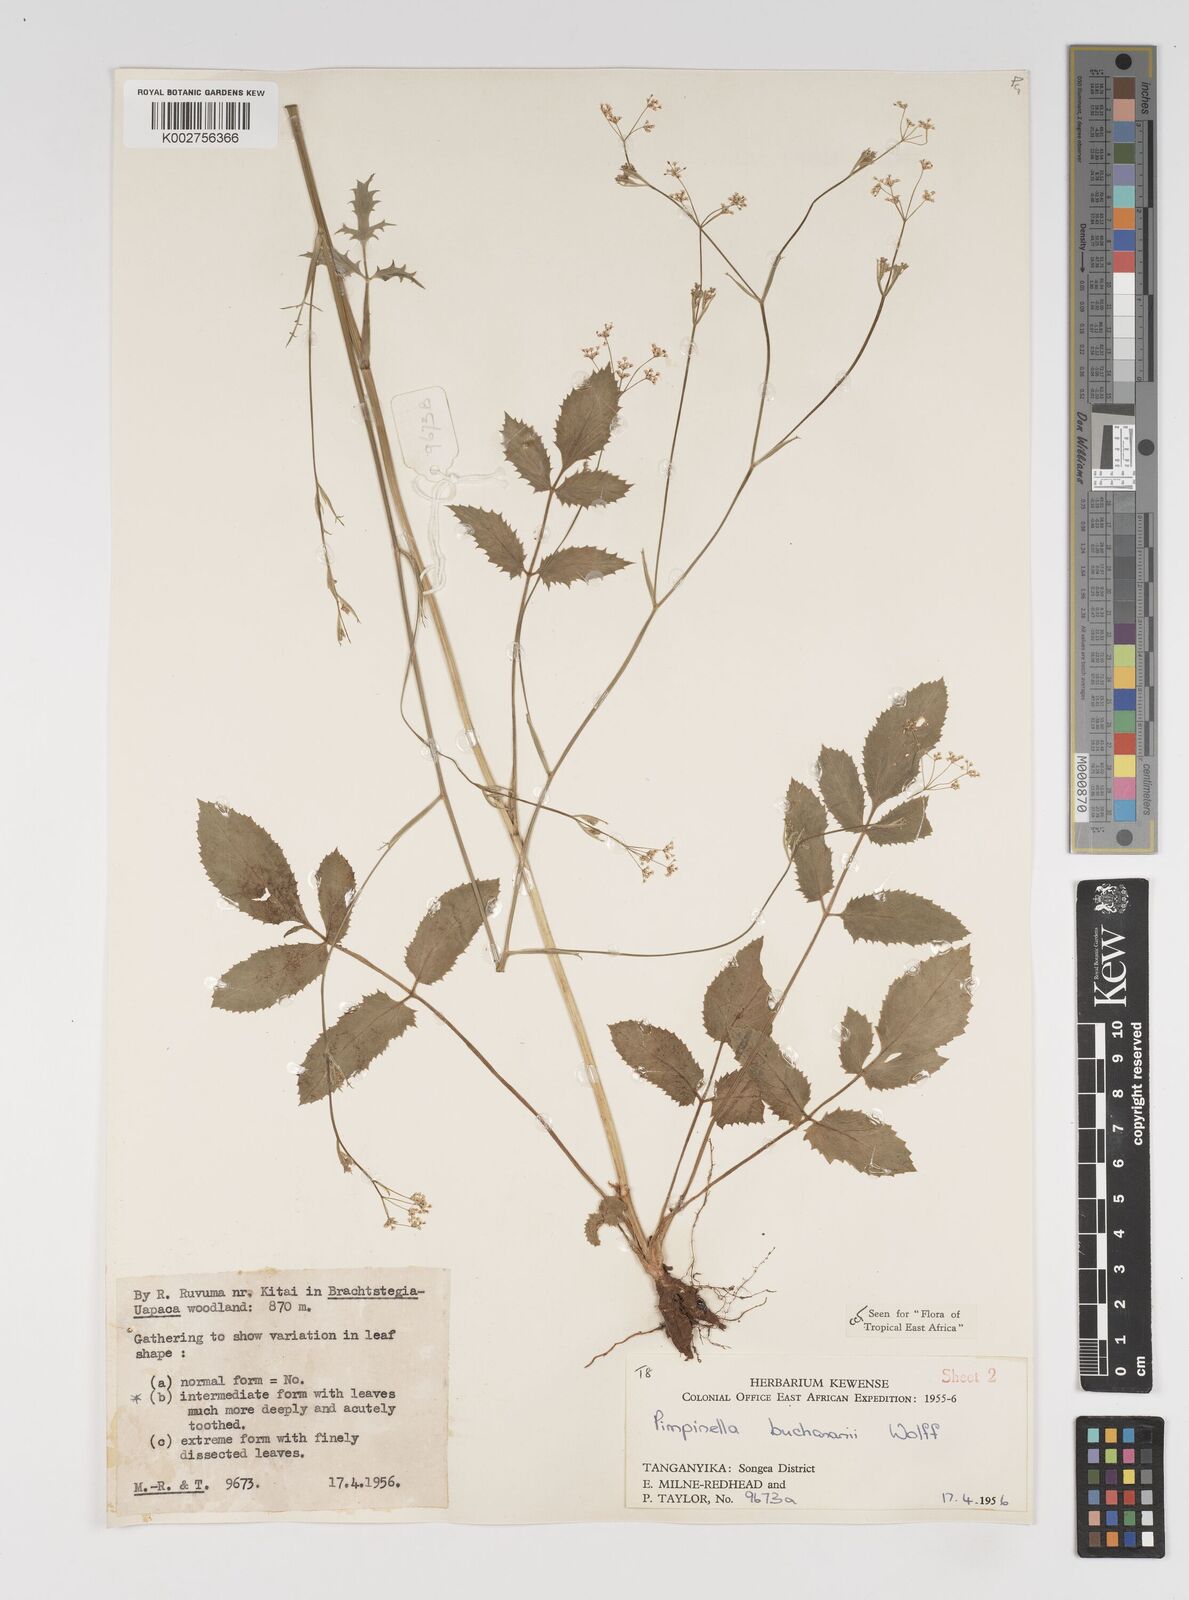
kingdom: Plantae
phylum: Tracheophyta
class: Magnoliopsida
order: Apiales
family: Apiaceae
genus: Pimpinella
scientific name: Pimpinella buchananii
